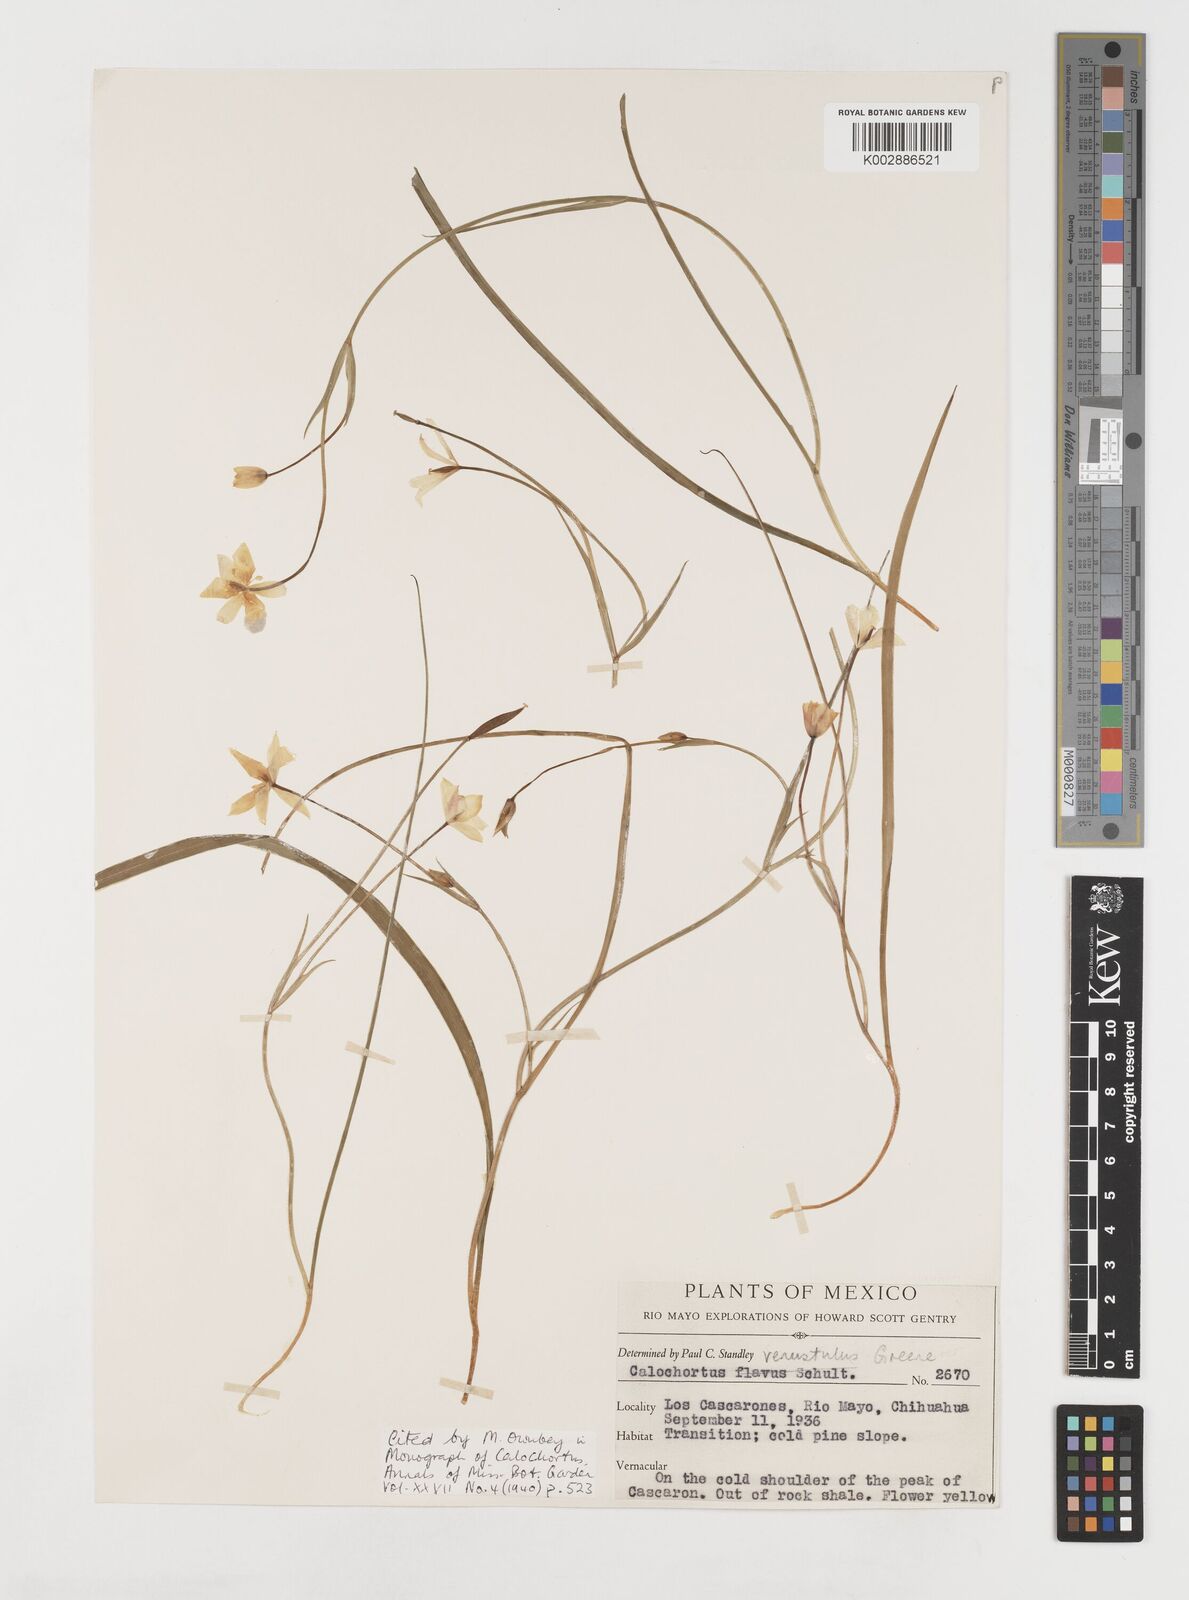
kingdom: Plantae
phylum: Tracheophyta
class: Liliopsida
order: Liliales
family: Liliaceae
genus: Calochortus
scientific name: Calochortus venustulus
